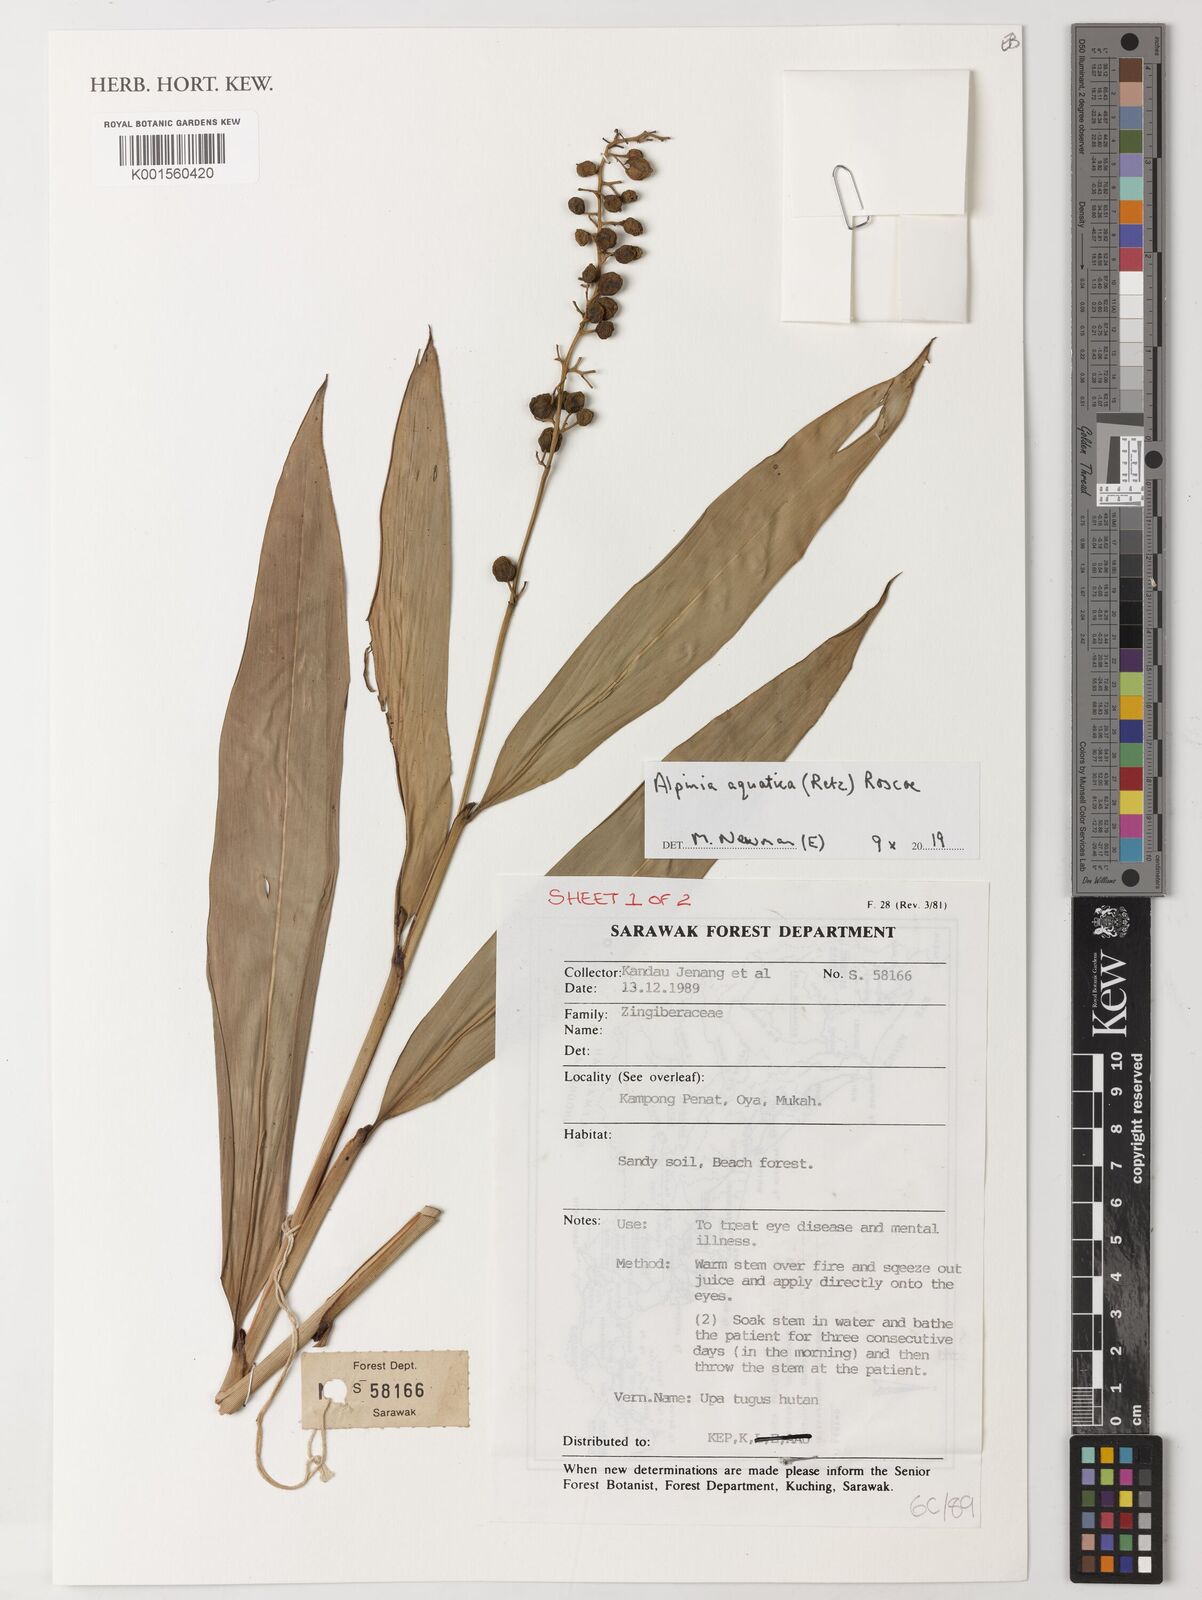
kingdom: Plantae
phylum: Tracheophyta
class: Liliopsida
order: Zingiberales
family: Zingiberaceae
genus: Alpinia
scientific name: Alpinia aquatica
